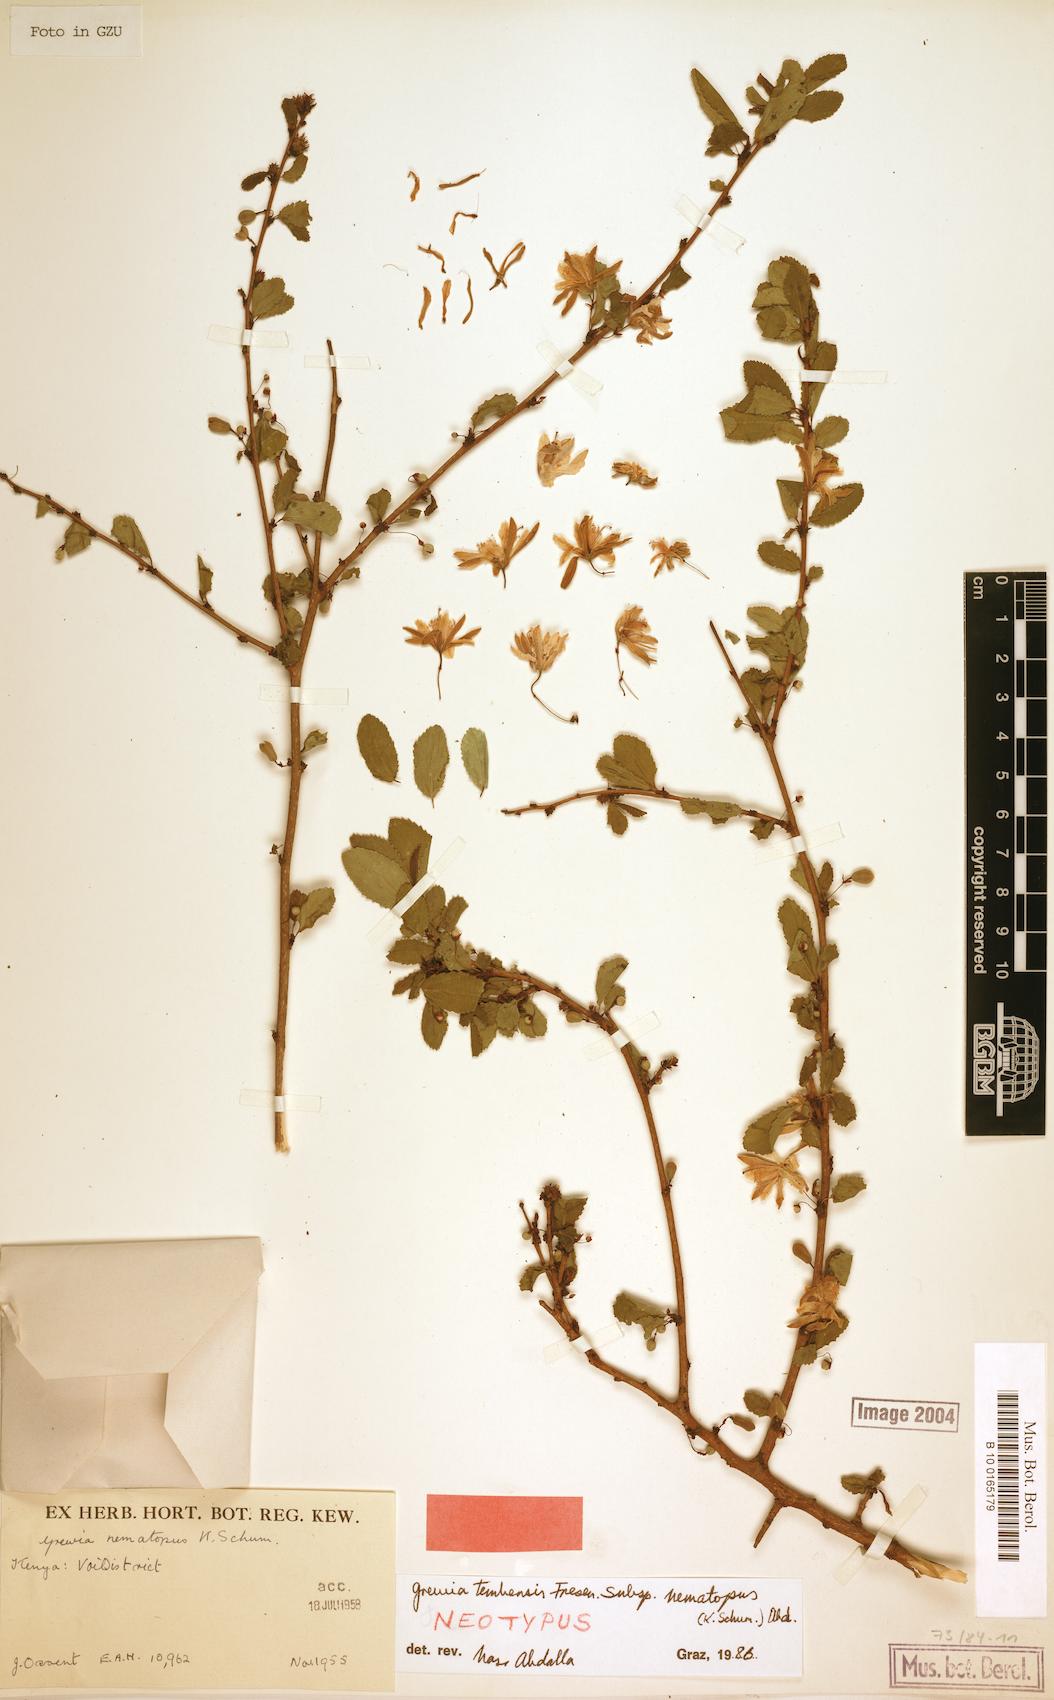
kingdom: Plantae
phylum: Tracheophyta
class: Magnoliopsida
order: Malvales
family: Malvaceae
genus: Grewia
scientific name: Grewia nematopus
